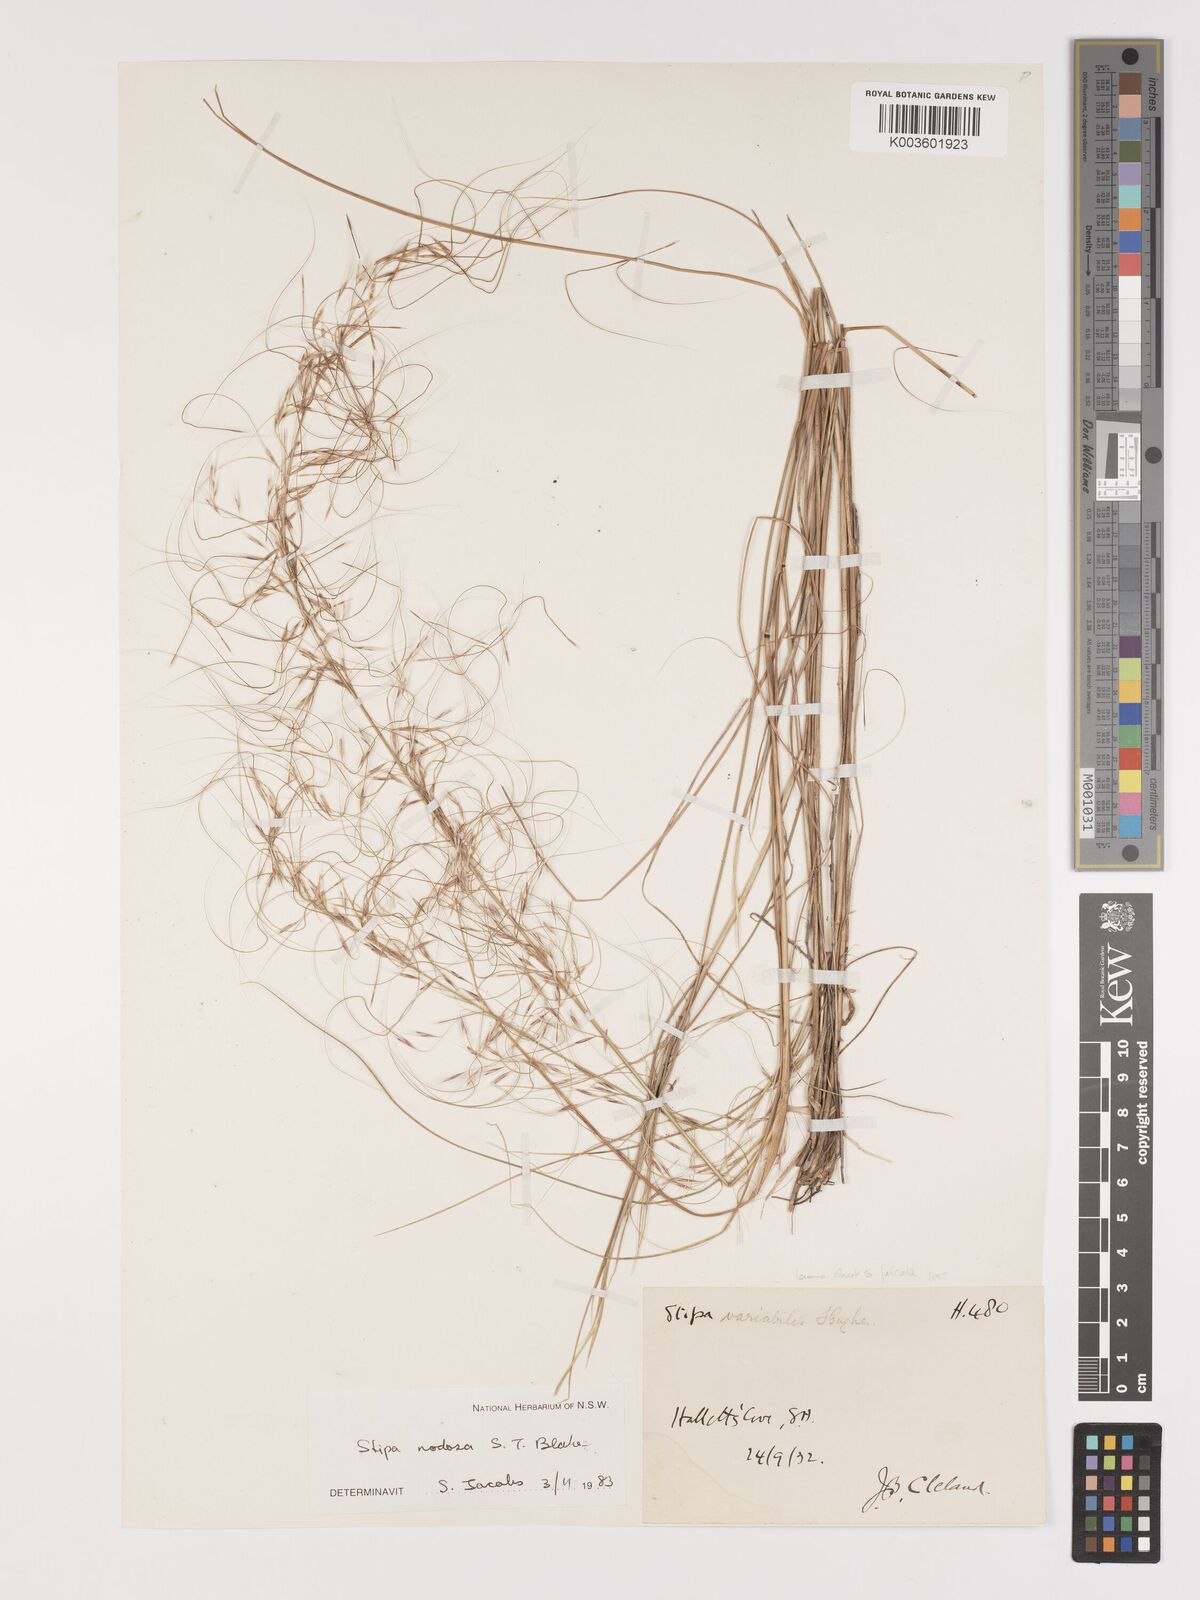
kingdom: Plantae
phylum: Tracheophyta
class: Liliopsida
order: Poales
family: Poaceae
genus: Austrostipa
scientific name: Austrostipa nodosa
